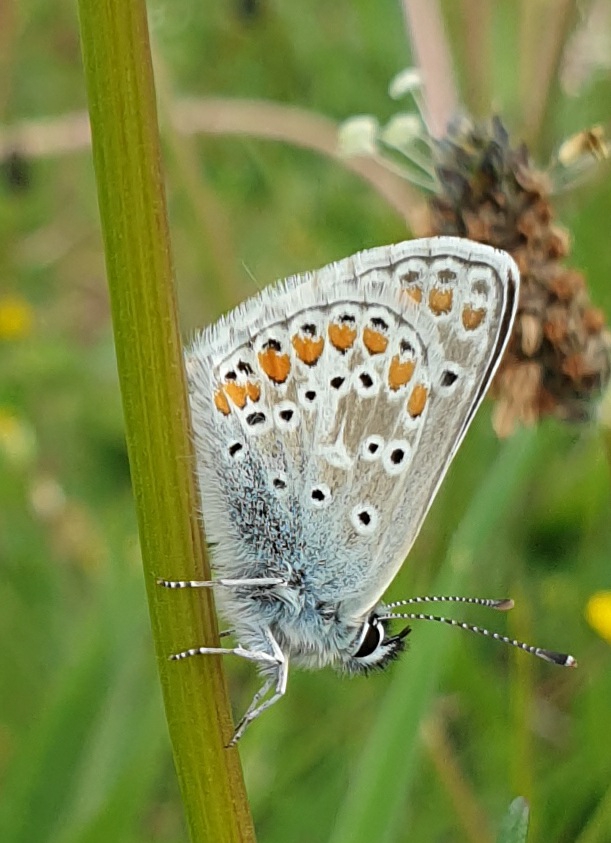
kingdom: Animalia
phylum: Arthropoda
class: Insecta
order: Lepidoptera
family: Lycaenidae
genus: Polyommatus
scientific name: Polyommatus icarus
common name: Almindelig blåfugl
